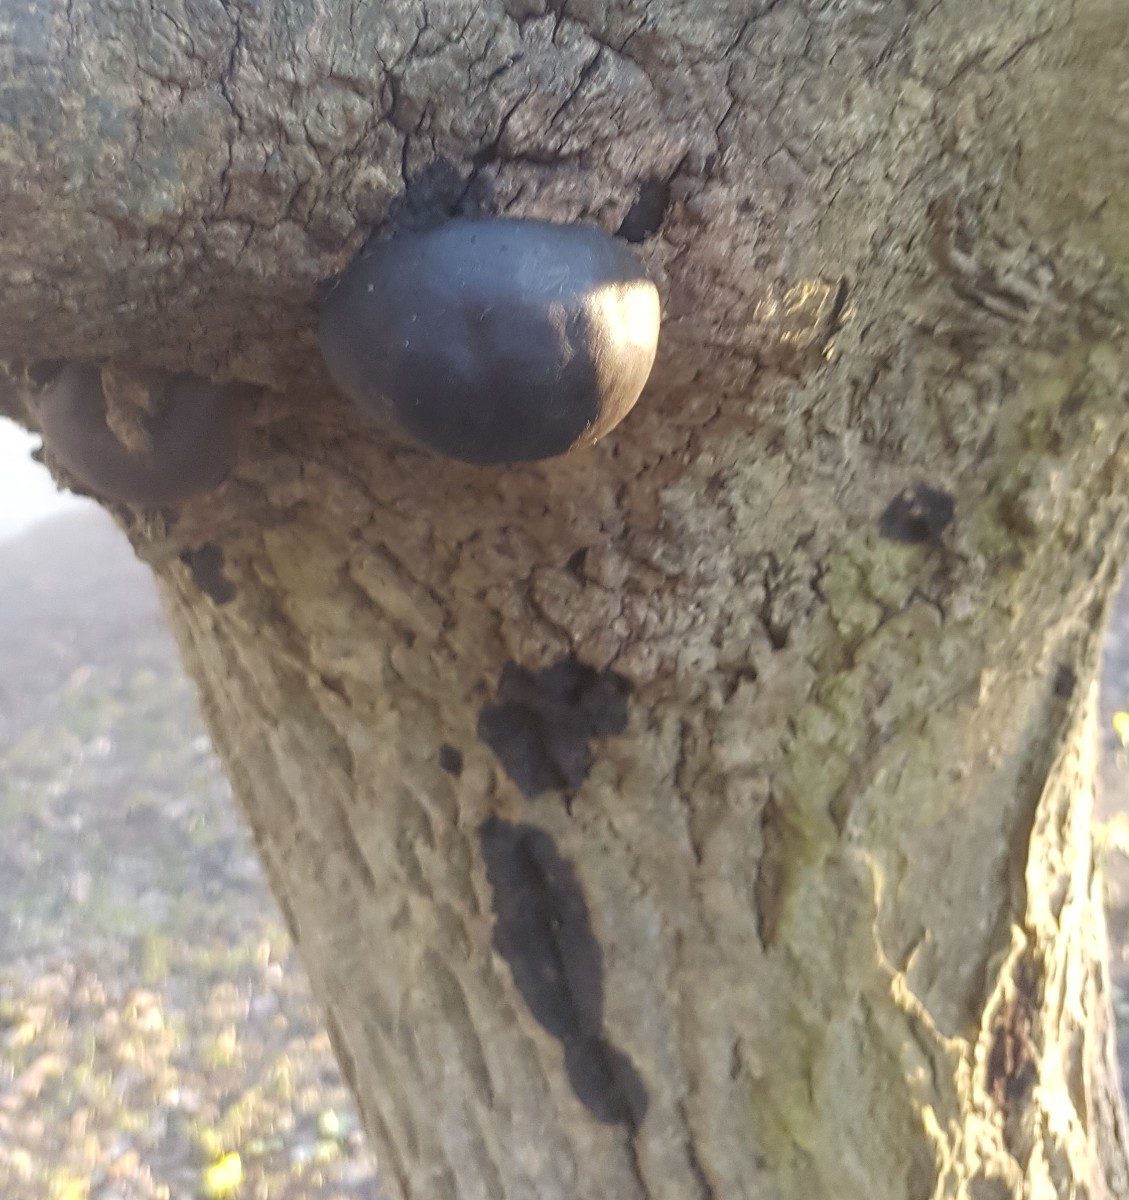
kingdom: Fungi
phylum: Ascomycota
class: Sordariomycetes
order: Xylariales
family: Hypoxylaceae
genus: Daldinia
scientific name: Daldinia concentrica
